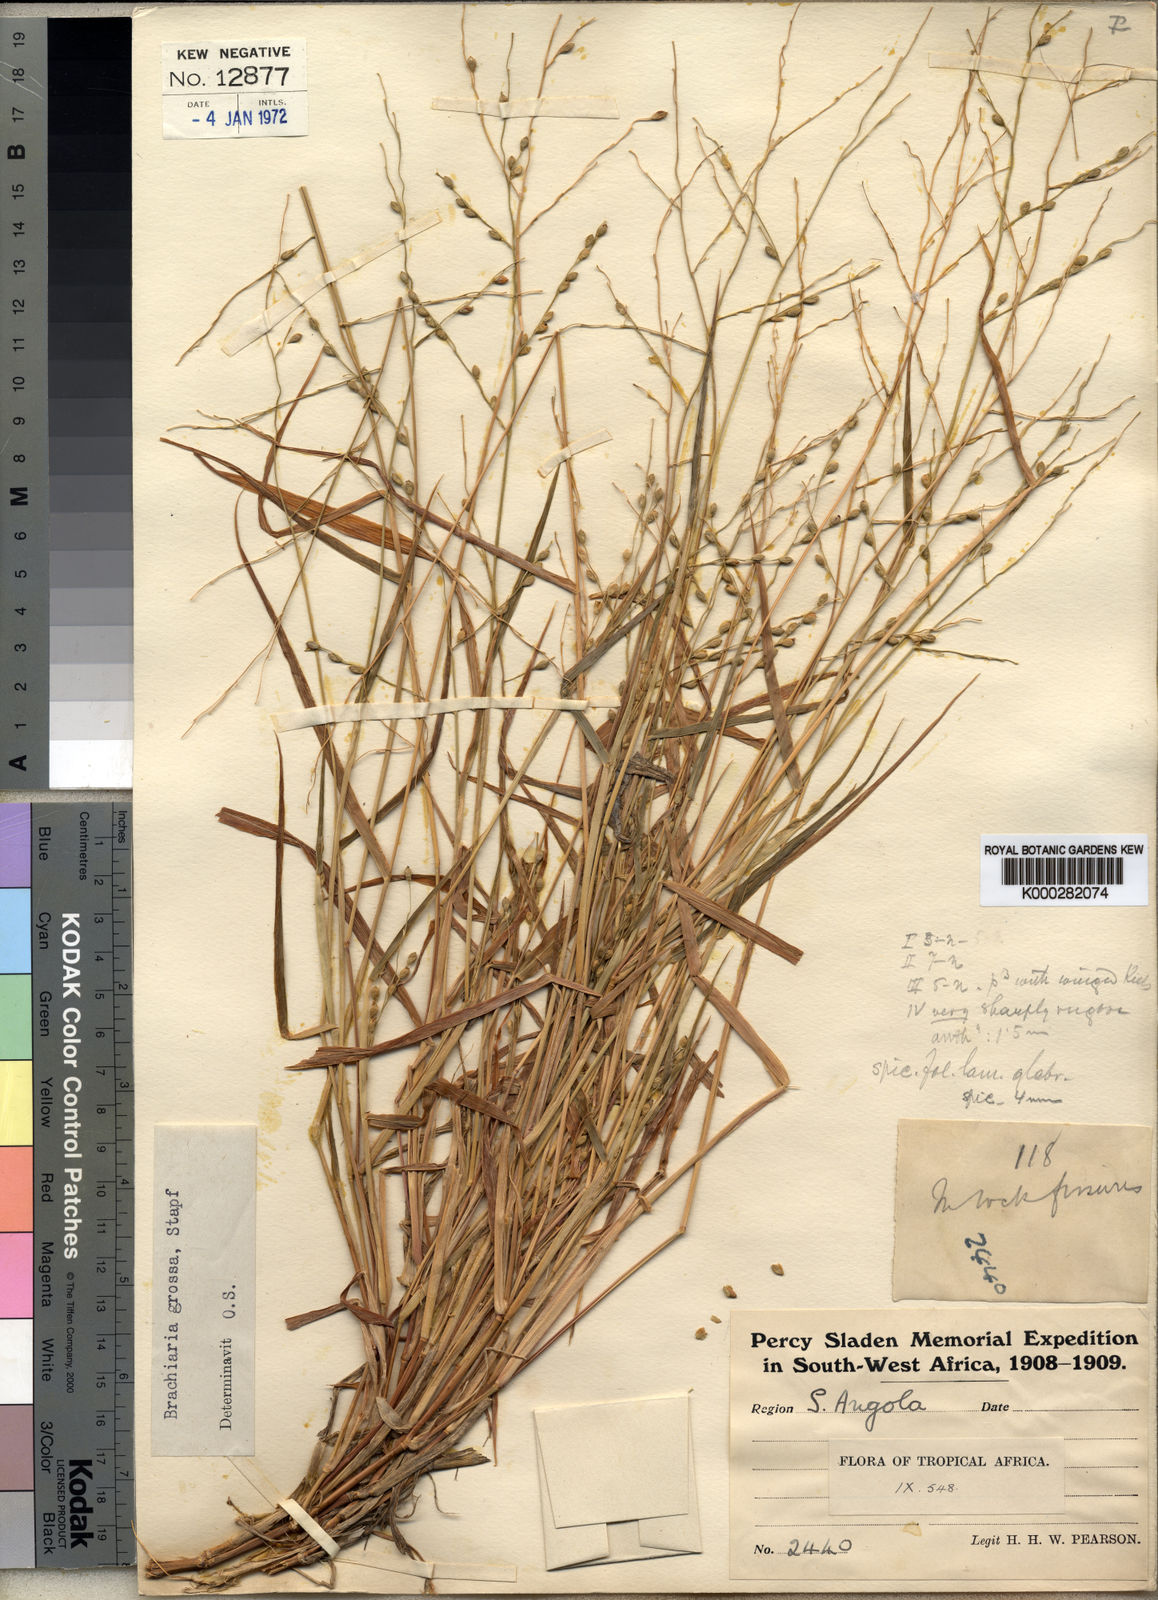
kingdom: Plantae
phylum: Tracheophyta
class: Liliopsida
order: Poales
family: Poaceae
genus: Urochloa
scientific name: Urochloa Brachiaria grossa
